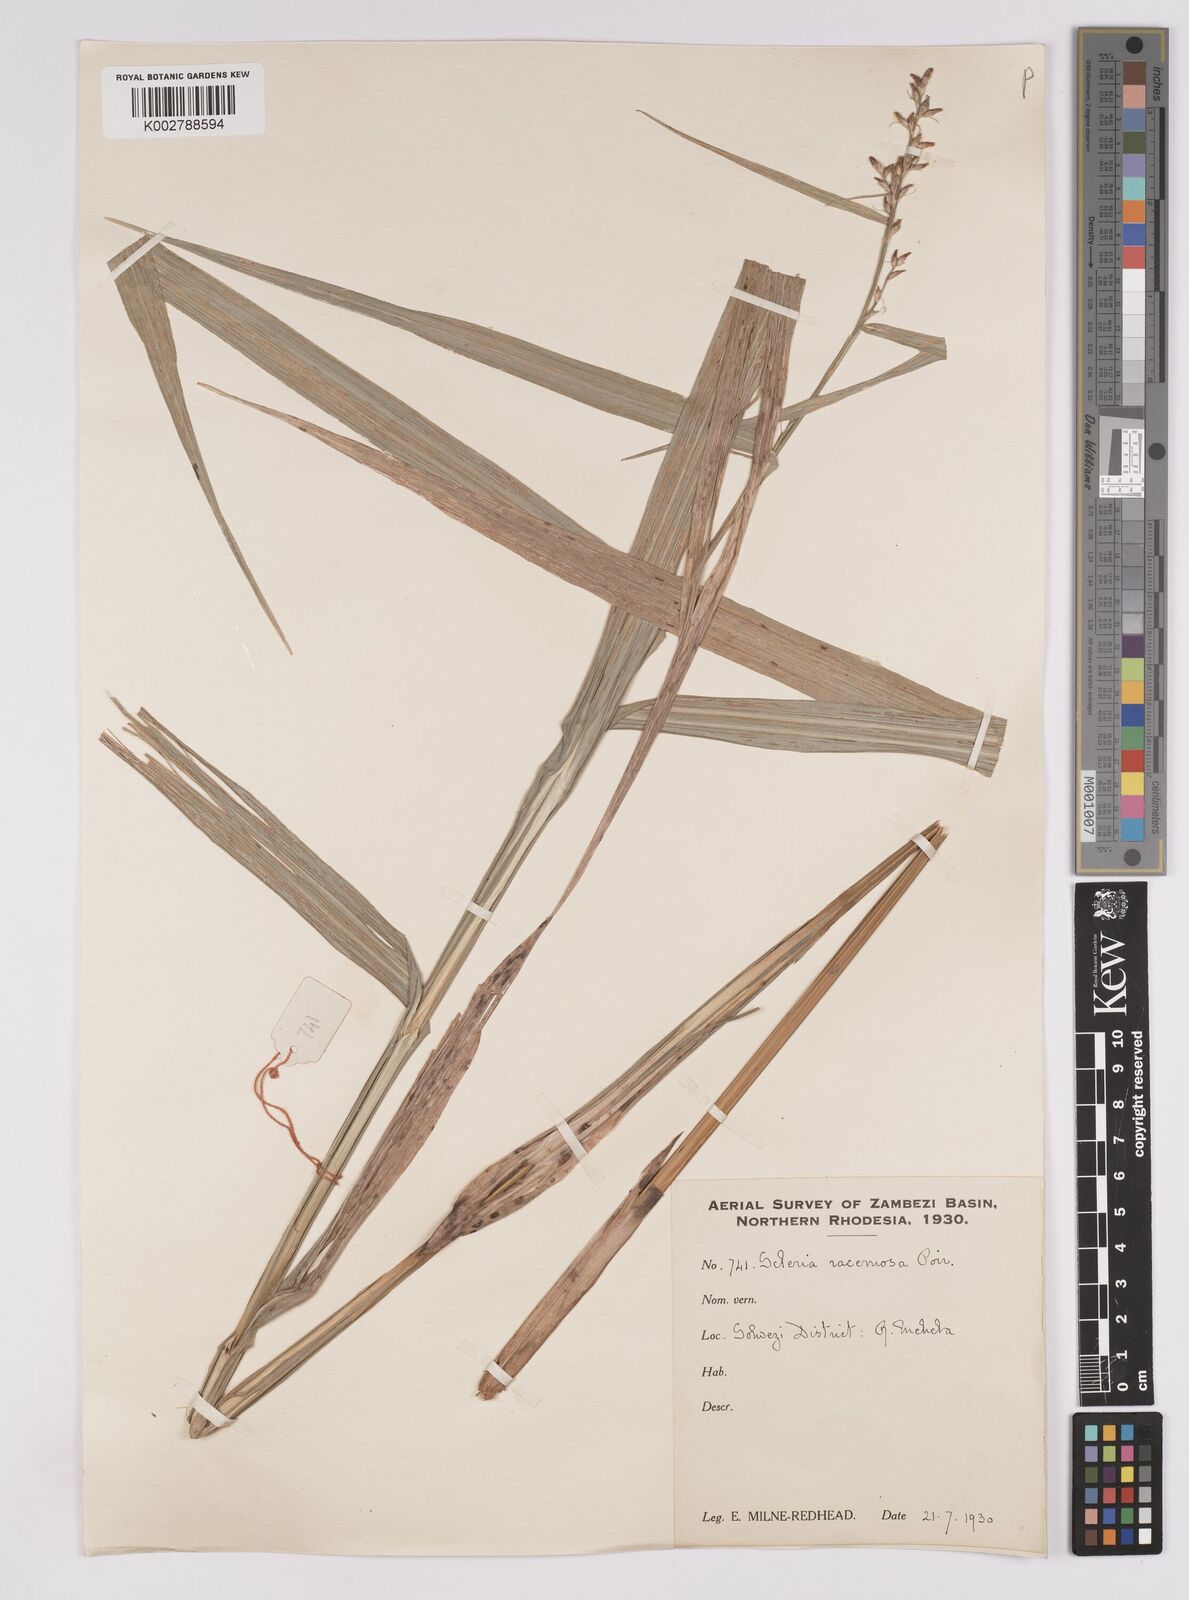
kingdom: Plantae
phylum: Tracheophyta
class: Liliopsida
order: Poales
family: Cyperaceae
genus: Scleria
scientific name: Scleria racemosa
